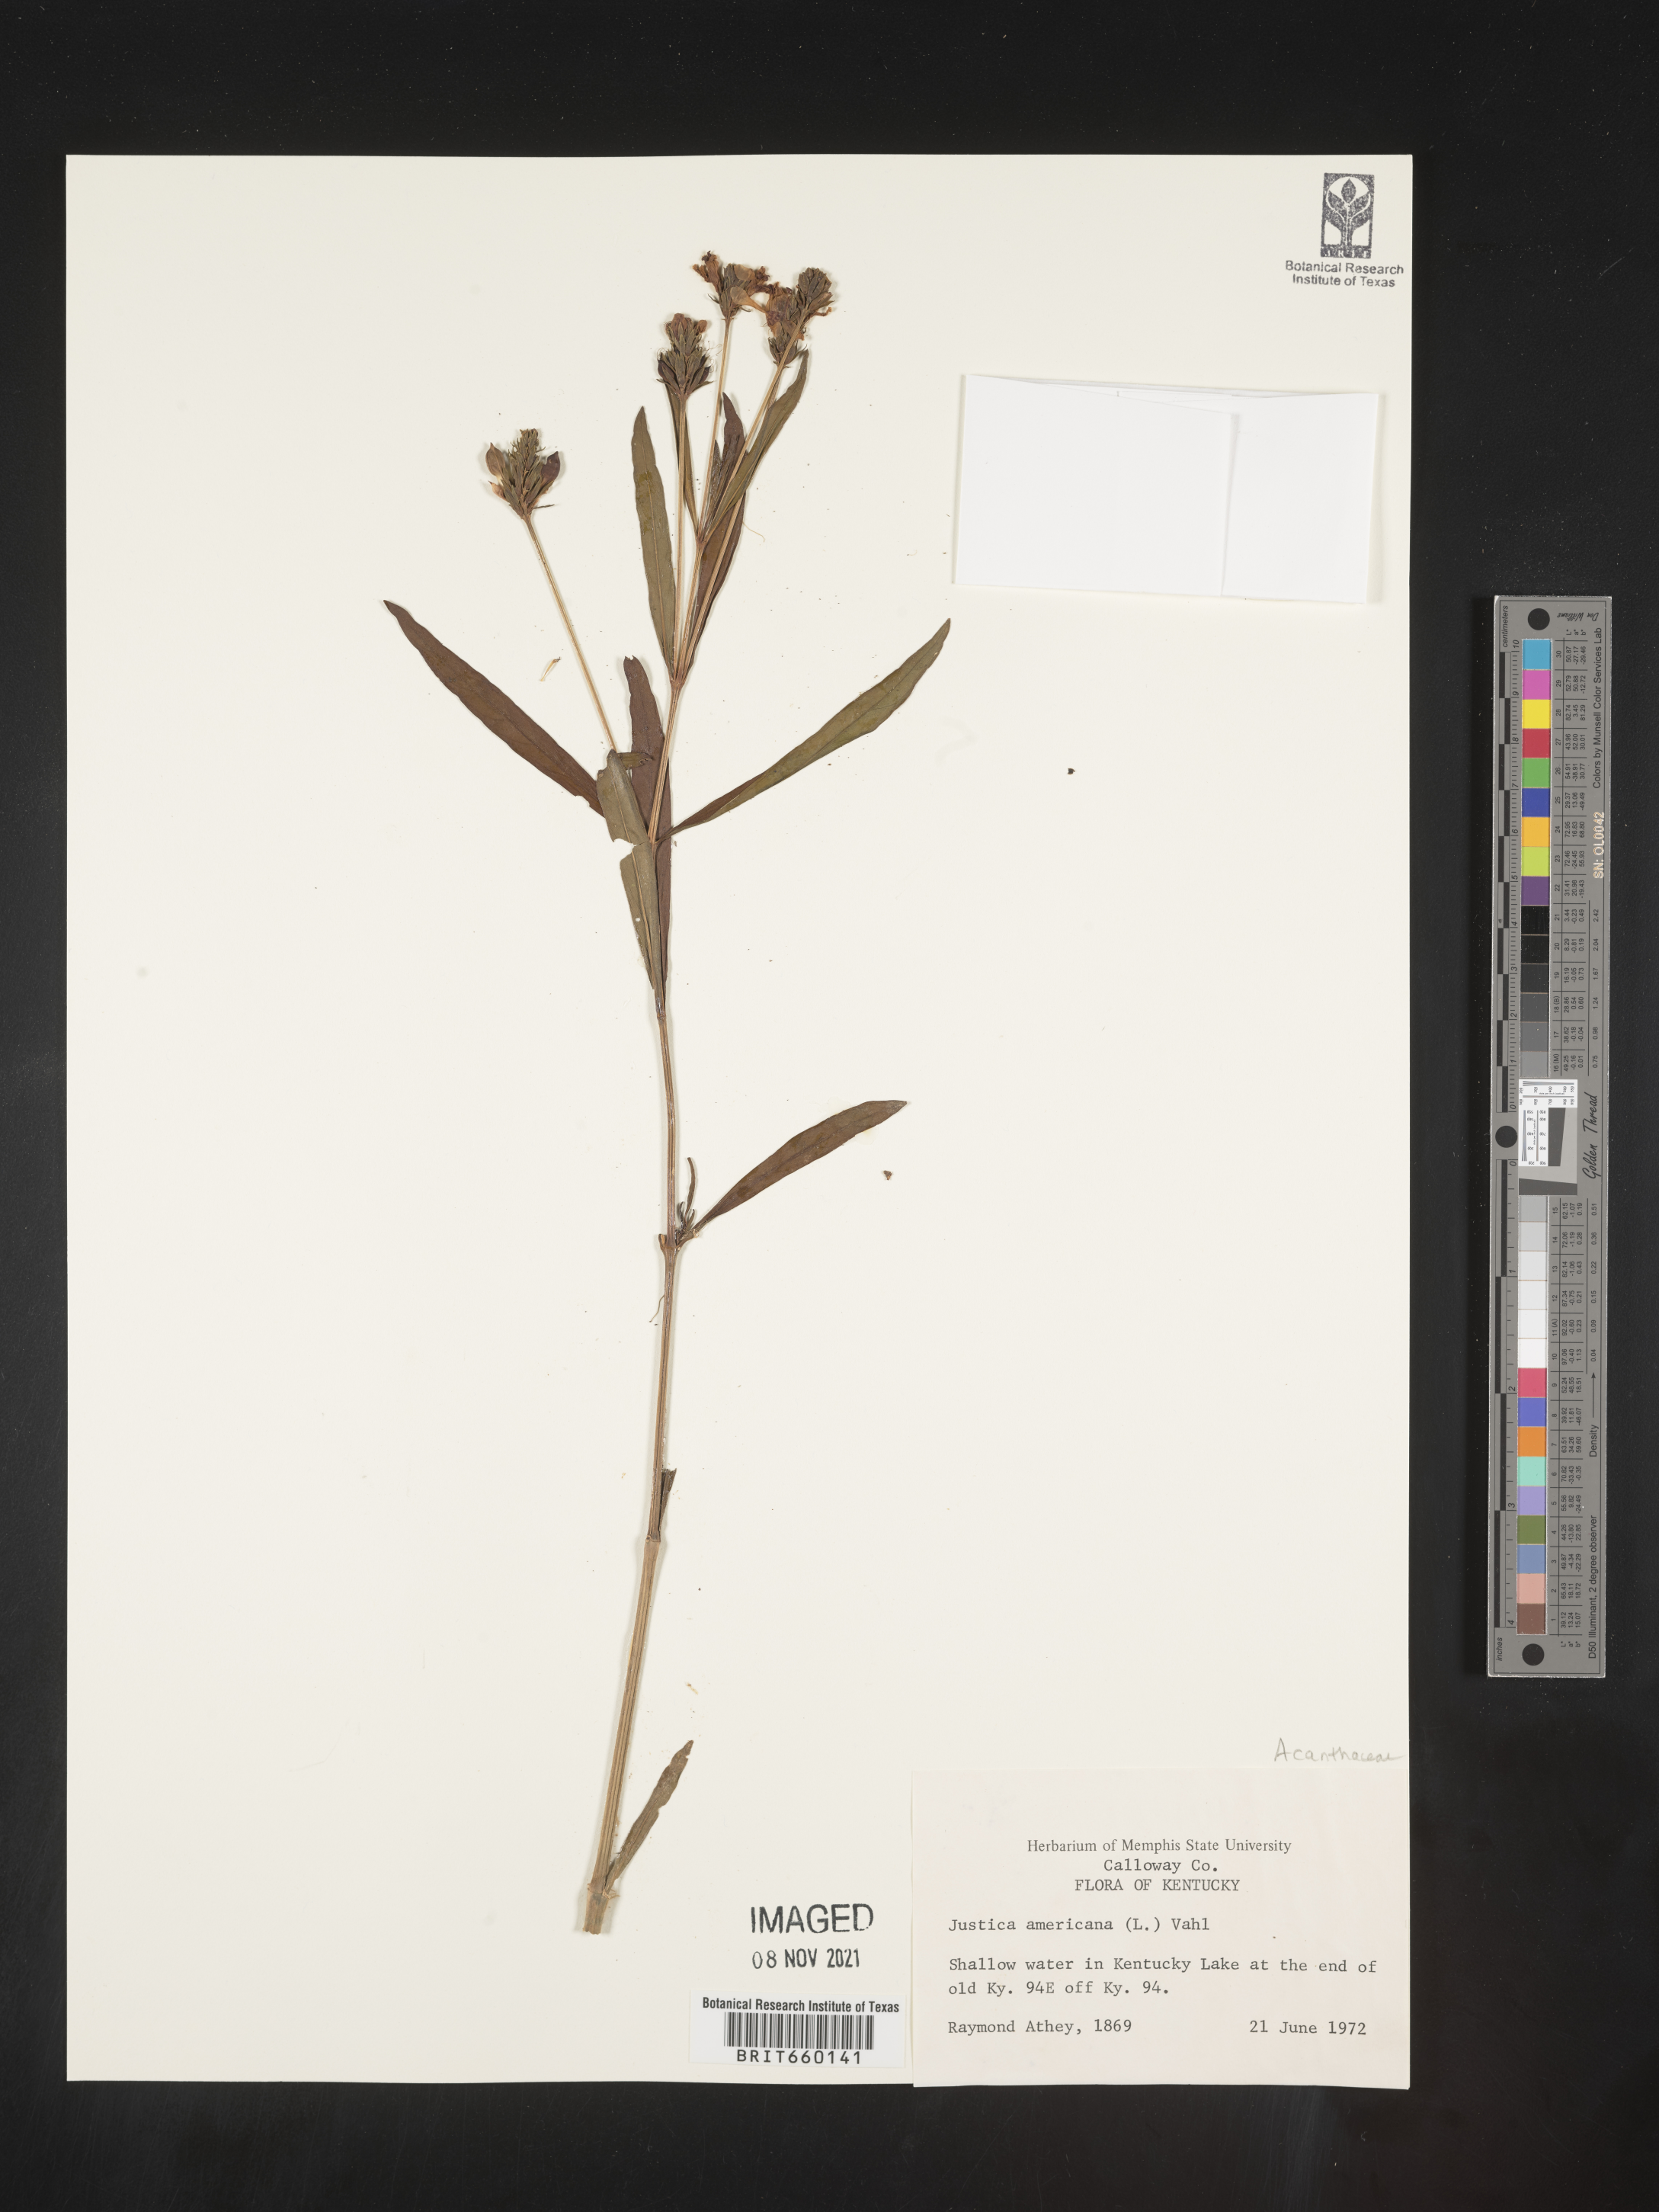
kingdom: Plantae
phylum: Tracheophyta
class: Magnoliopsida
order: Lamiales
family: Acanthaceae
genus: Dianthera
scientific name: Dianthera americana
